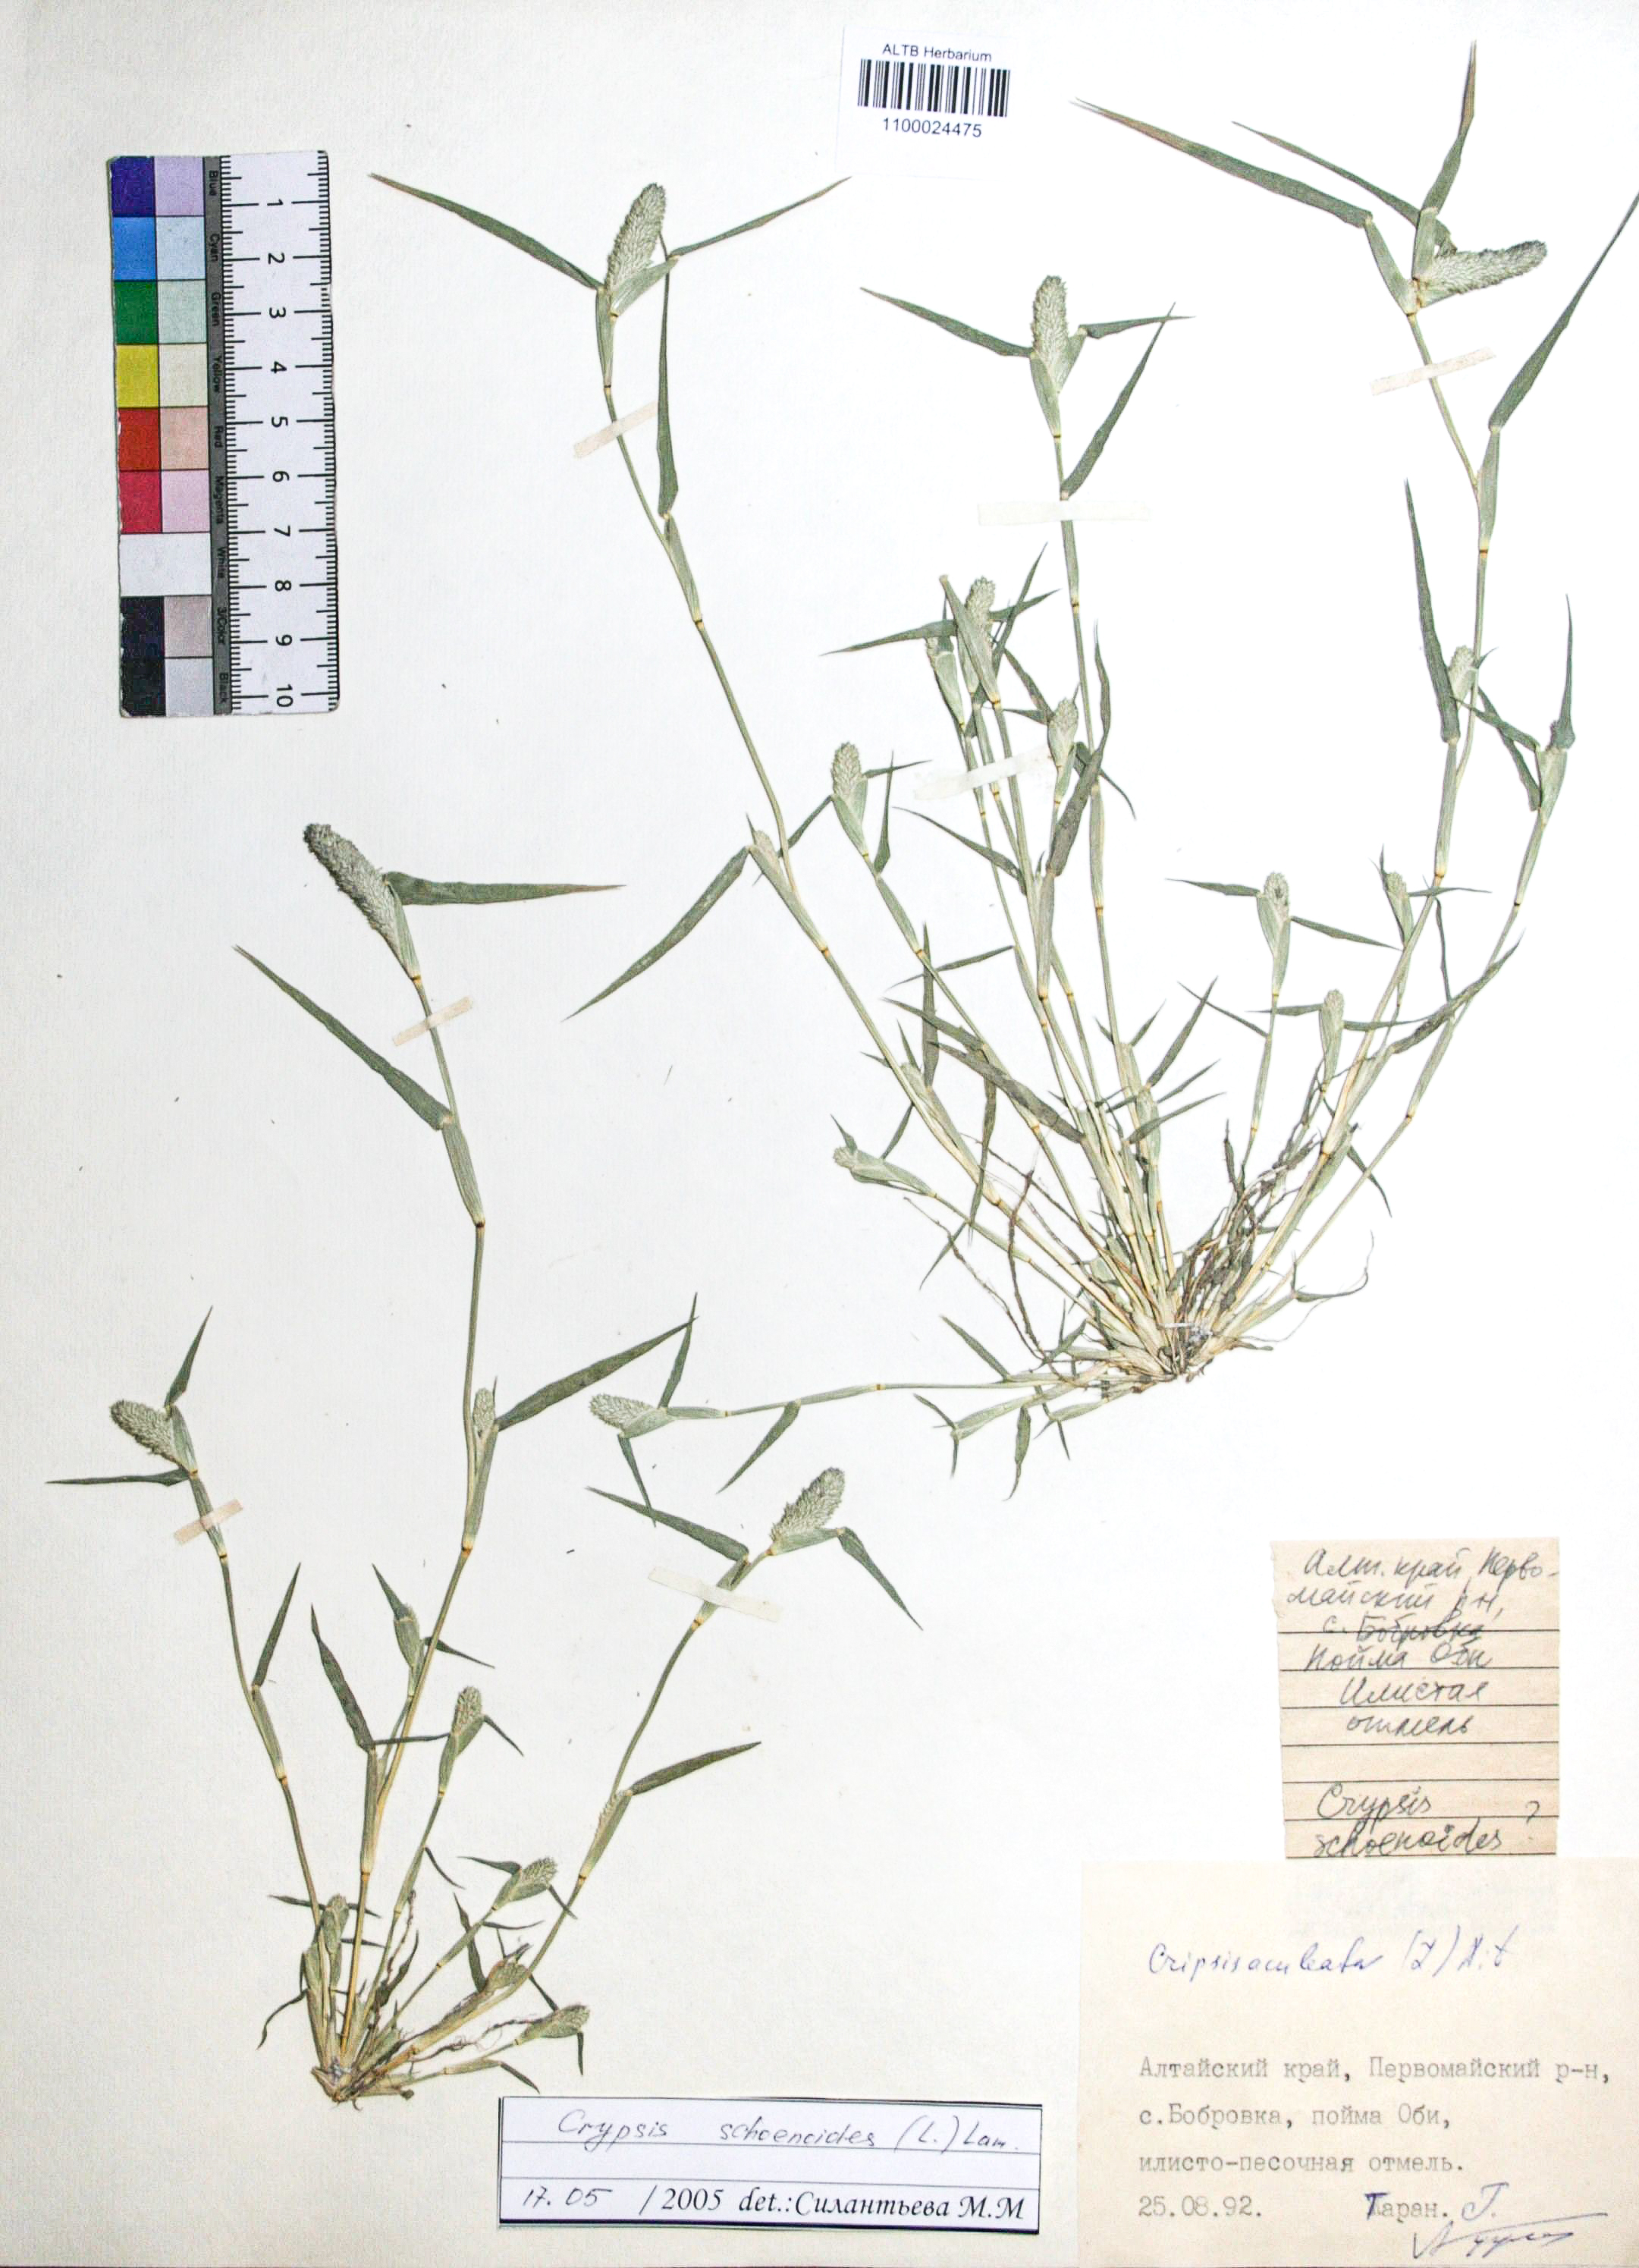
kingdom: Plantae
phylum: Tracheophyta
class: Liliopsida
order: Poales
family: Poaceae
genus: Sporobolus
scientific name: Sporobolus schoenoides
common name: Rush-like timothy
